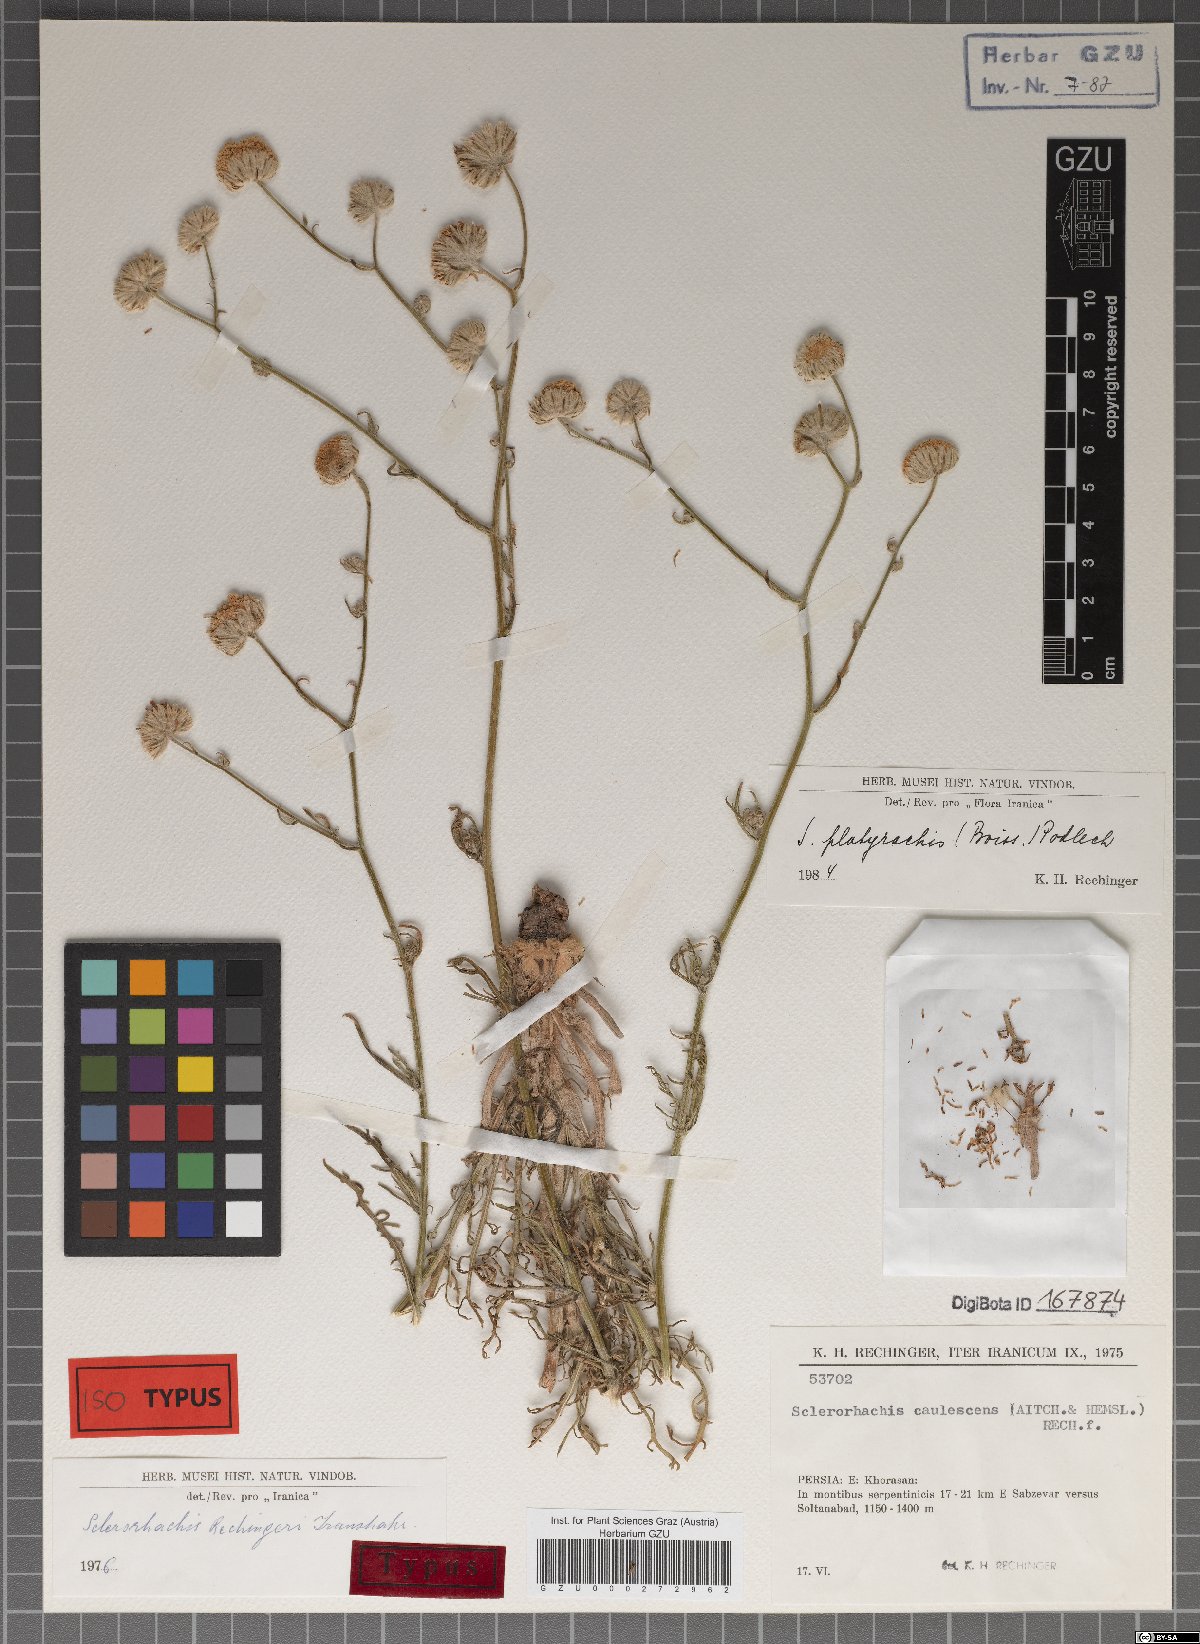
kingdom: Plantae
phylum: Tracheophyta
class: Magnoliopsida
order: Asterales
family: Asteraceae
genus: Sclerorhachis
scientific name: Sclerorhachis platyrachis
